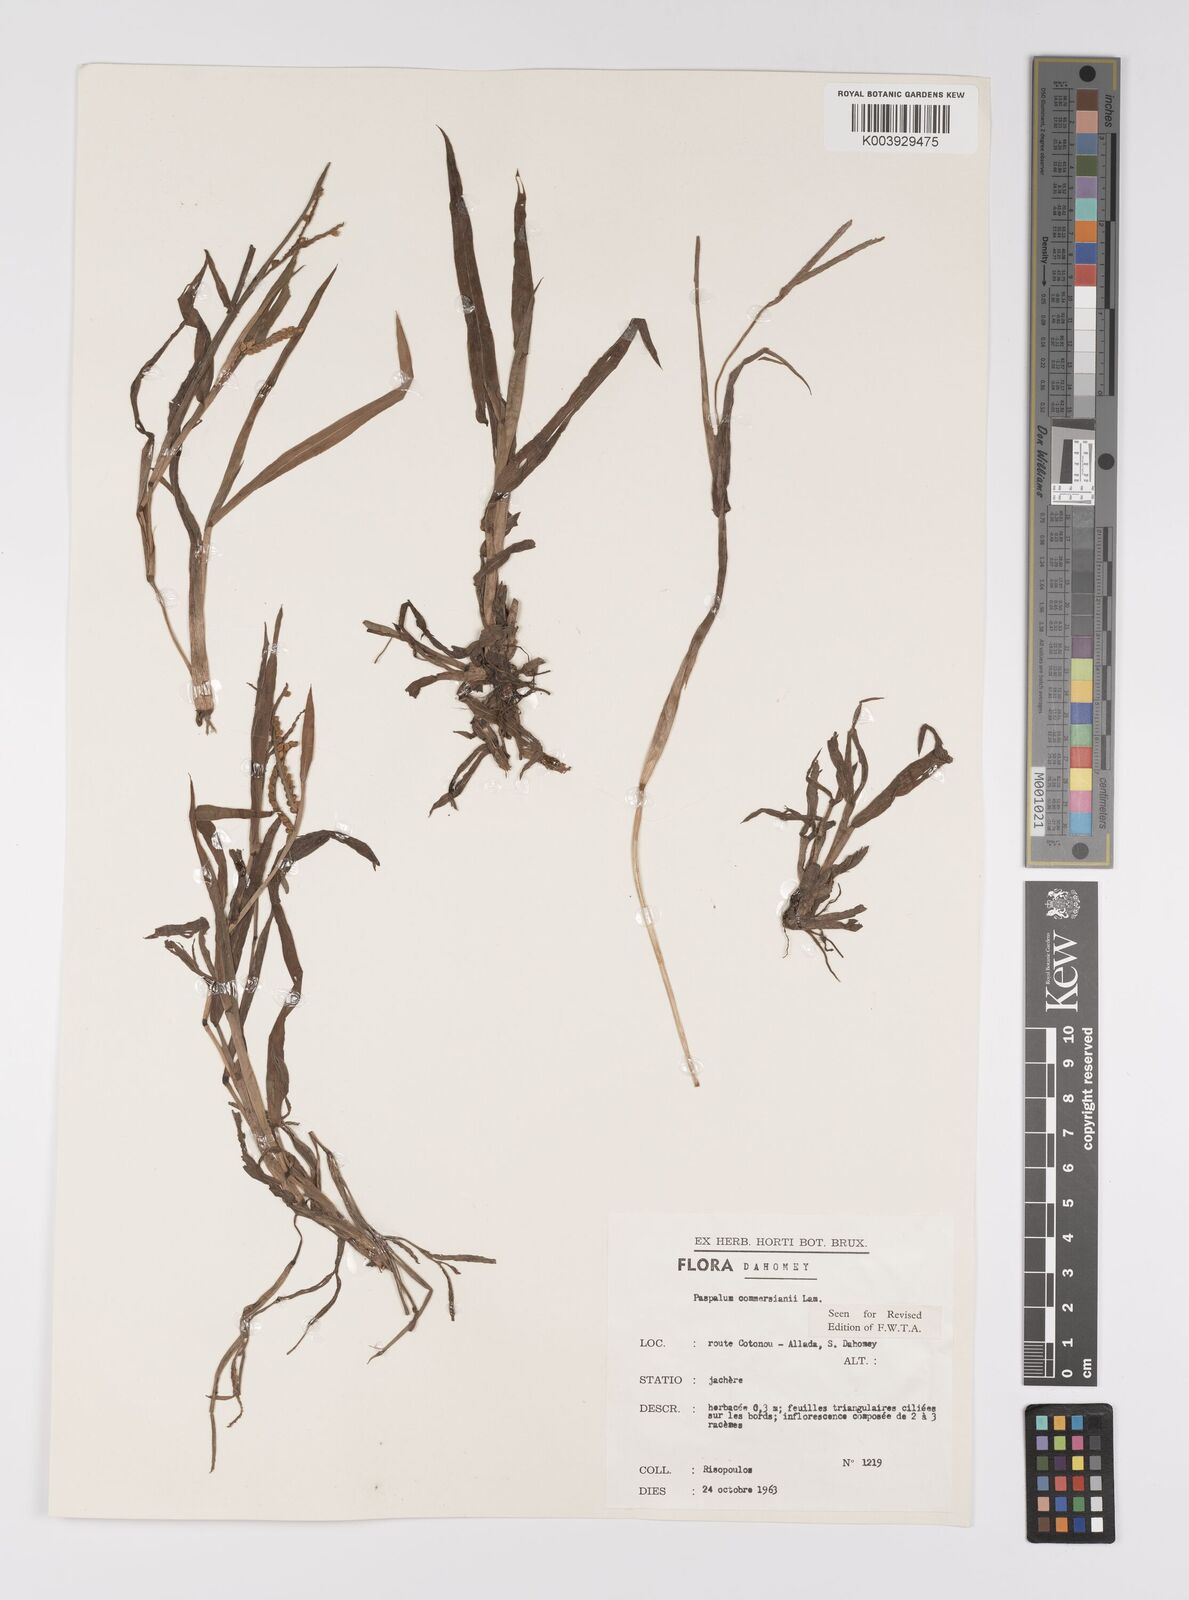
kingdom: Plantae
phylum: Tracheophyta
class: Liliopsida
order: Poales
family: Poaceae
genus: Paspalum
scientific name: Paspalum scrobiculatum
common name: Kodo millet
